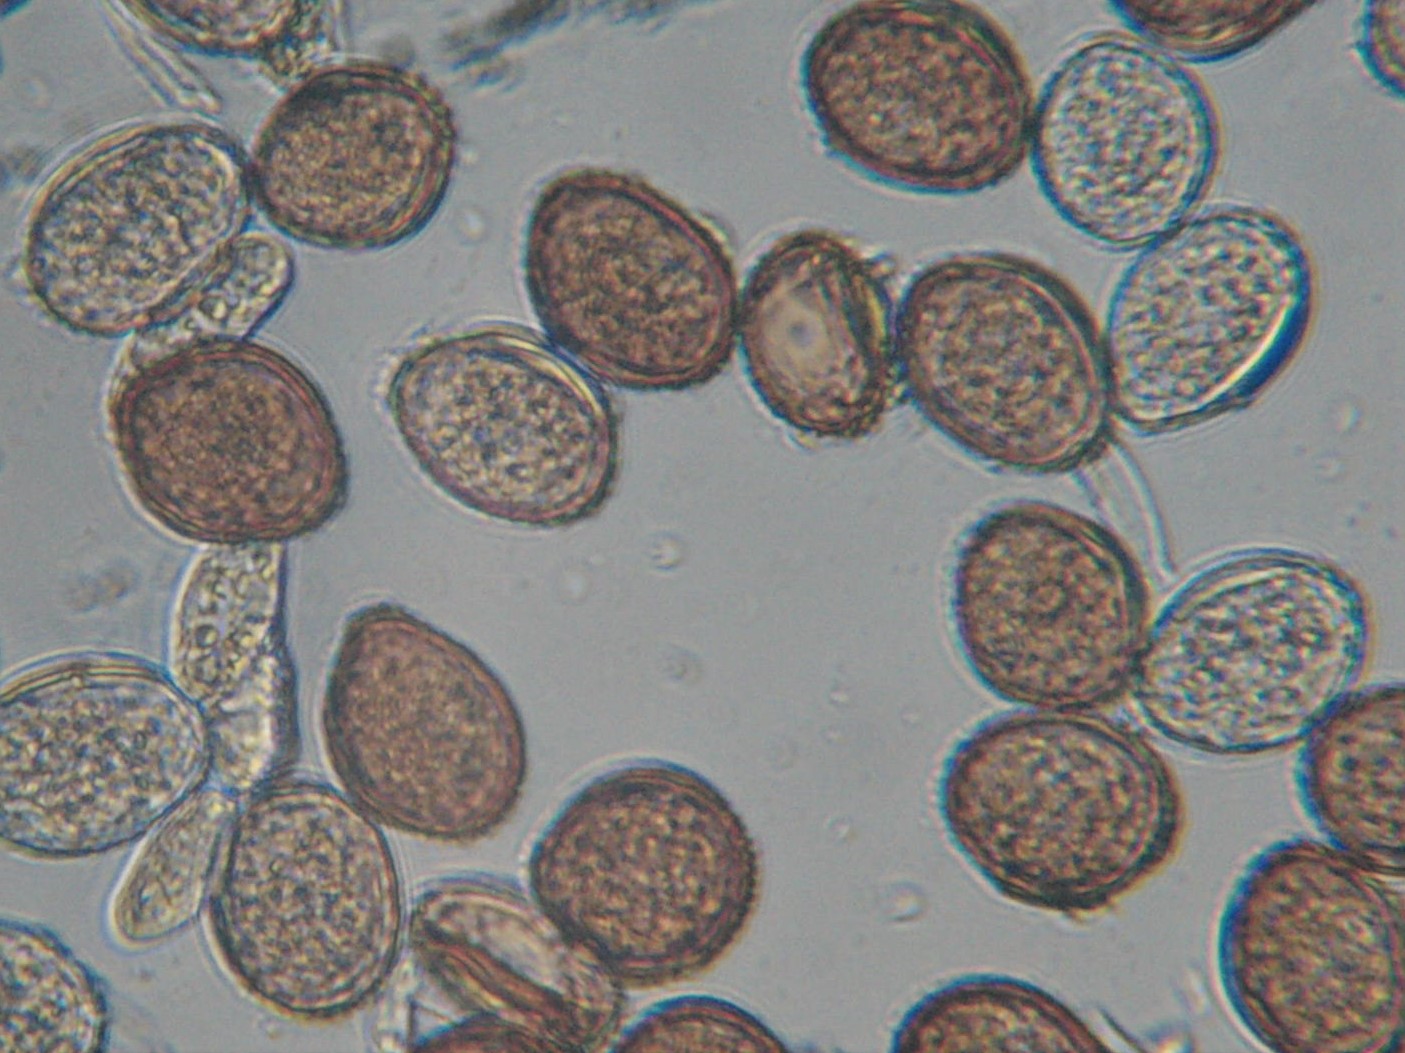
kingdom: Fungi
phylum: Basidiomycota
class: Pucciniomycetes
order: Pucciniales
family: Pucciniaceae
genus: Puccinia
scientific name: Puccinia tanaceti
